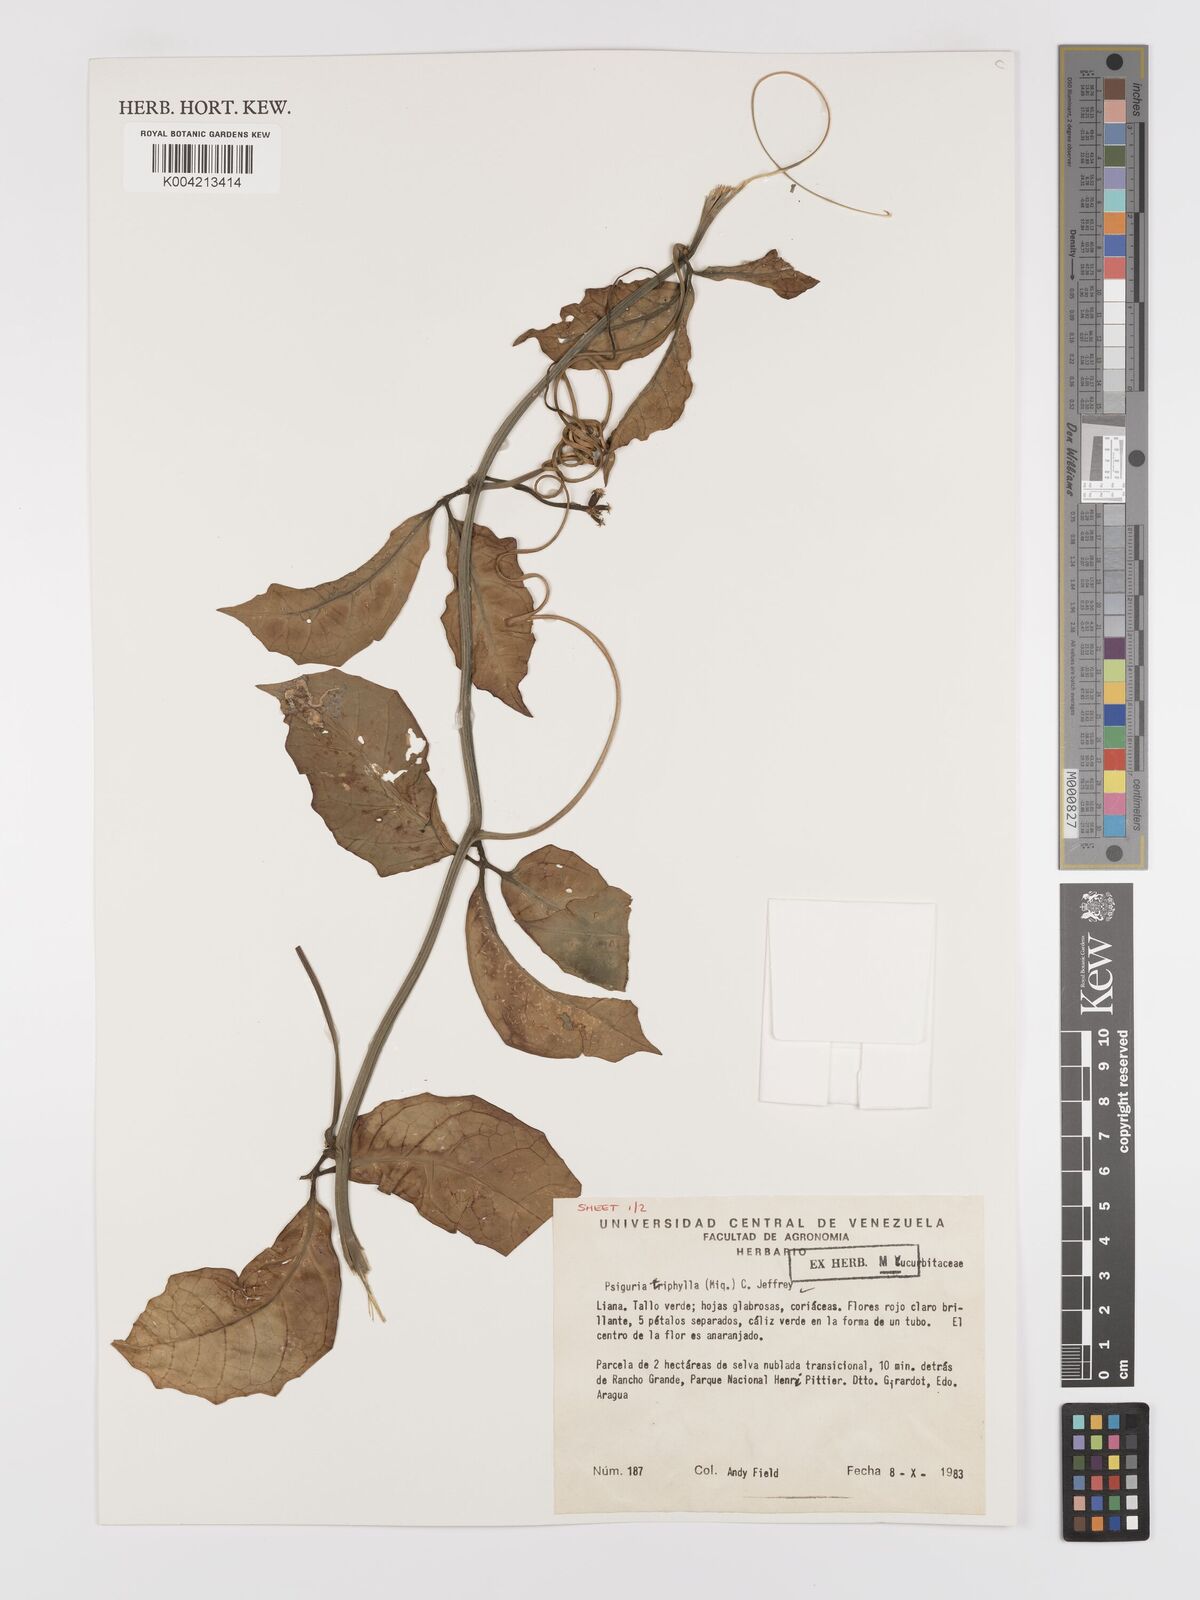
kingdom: Plantae
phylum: Tracheophyta
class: Magnoliopsida
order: Cucurbitales
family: Cucurbitaceae
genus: Psiguria
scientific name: Psiguria triphylla
